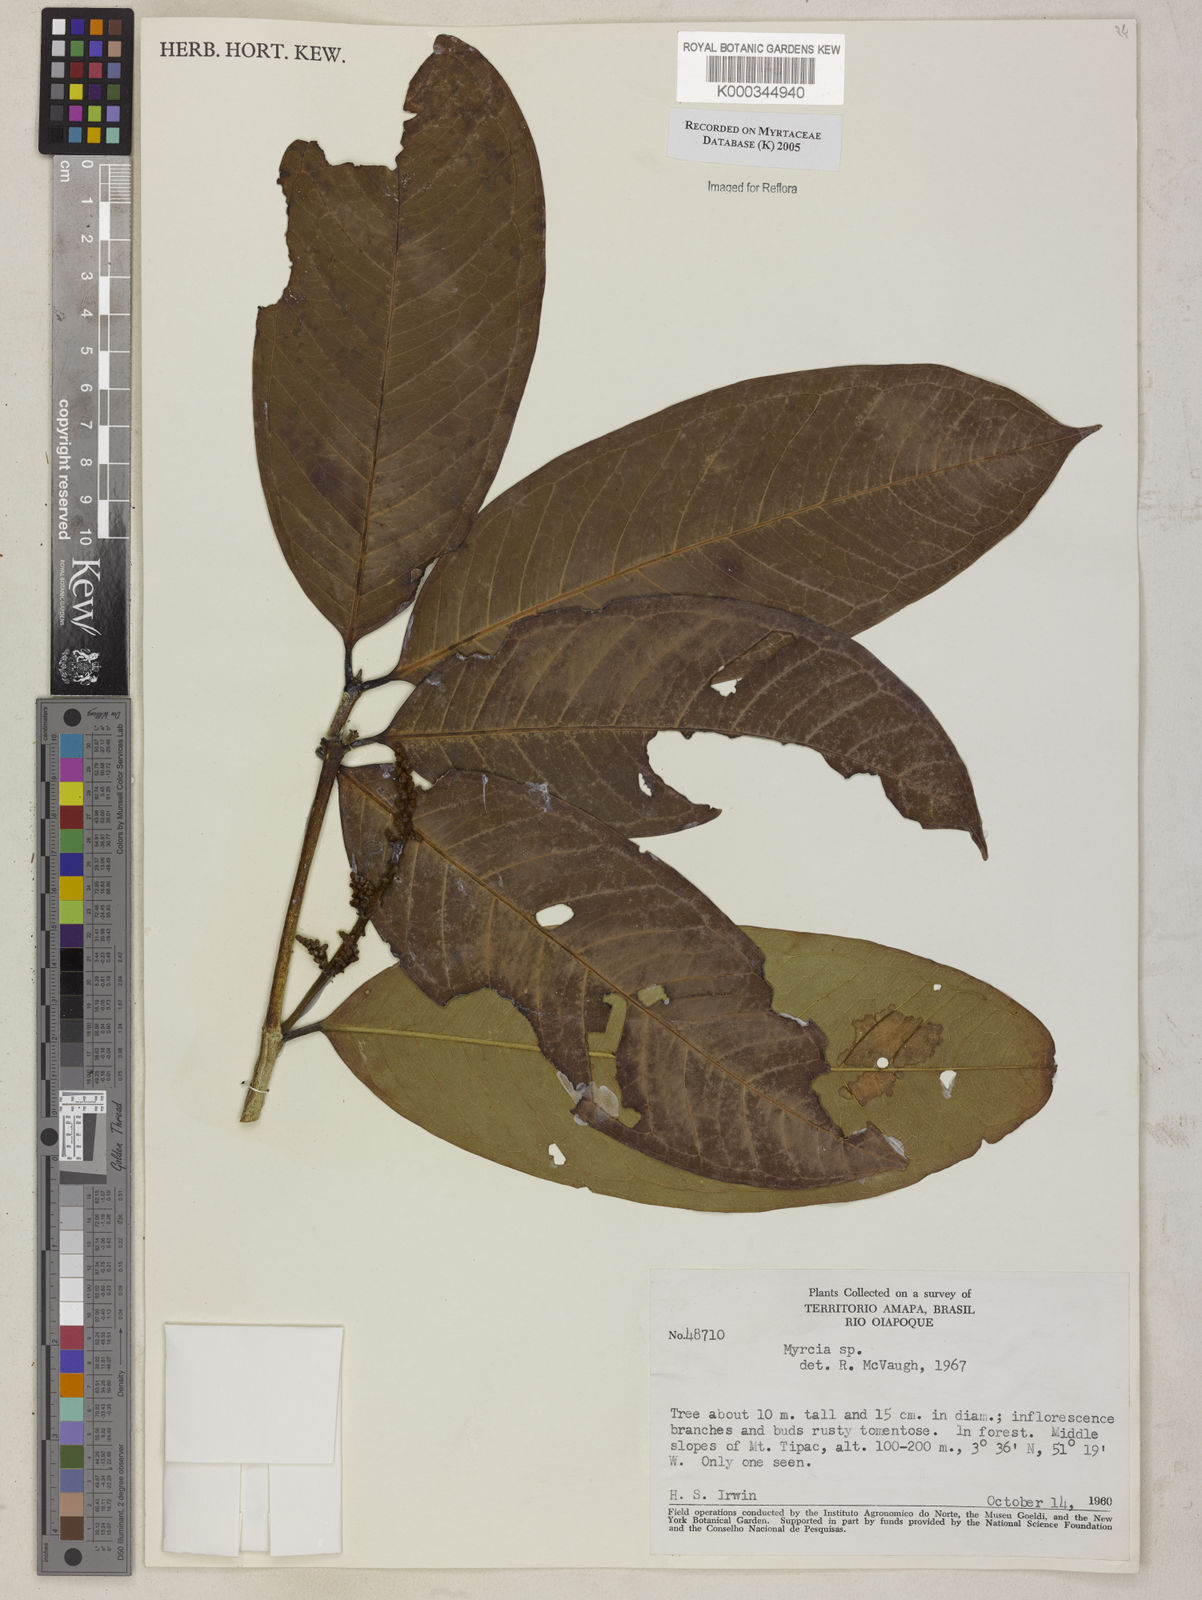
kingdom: Plantae
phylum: Tracheophyta
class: Magnoliopsida
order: Myrtales
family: Myrtaceae
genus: Myrcia
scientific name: Myrcia
